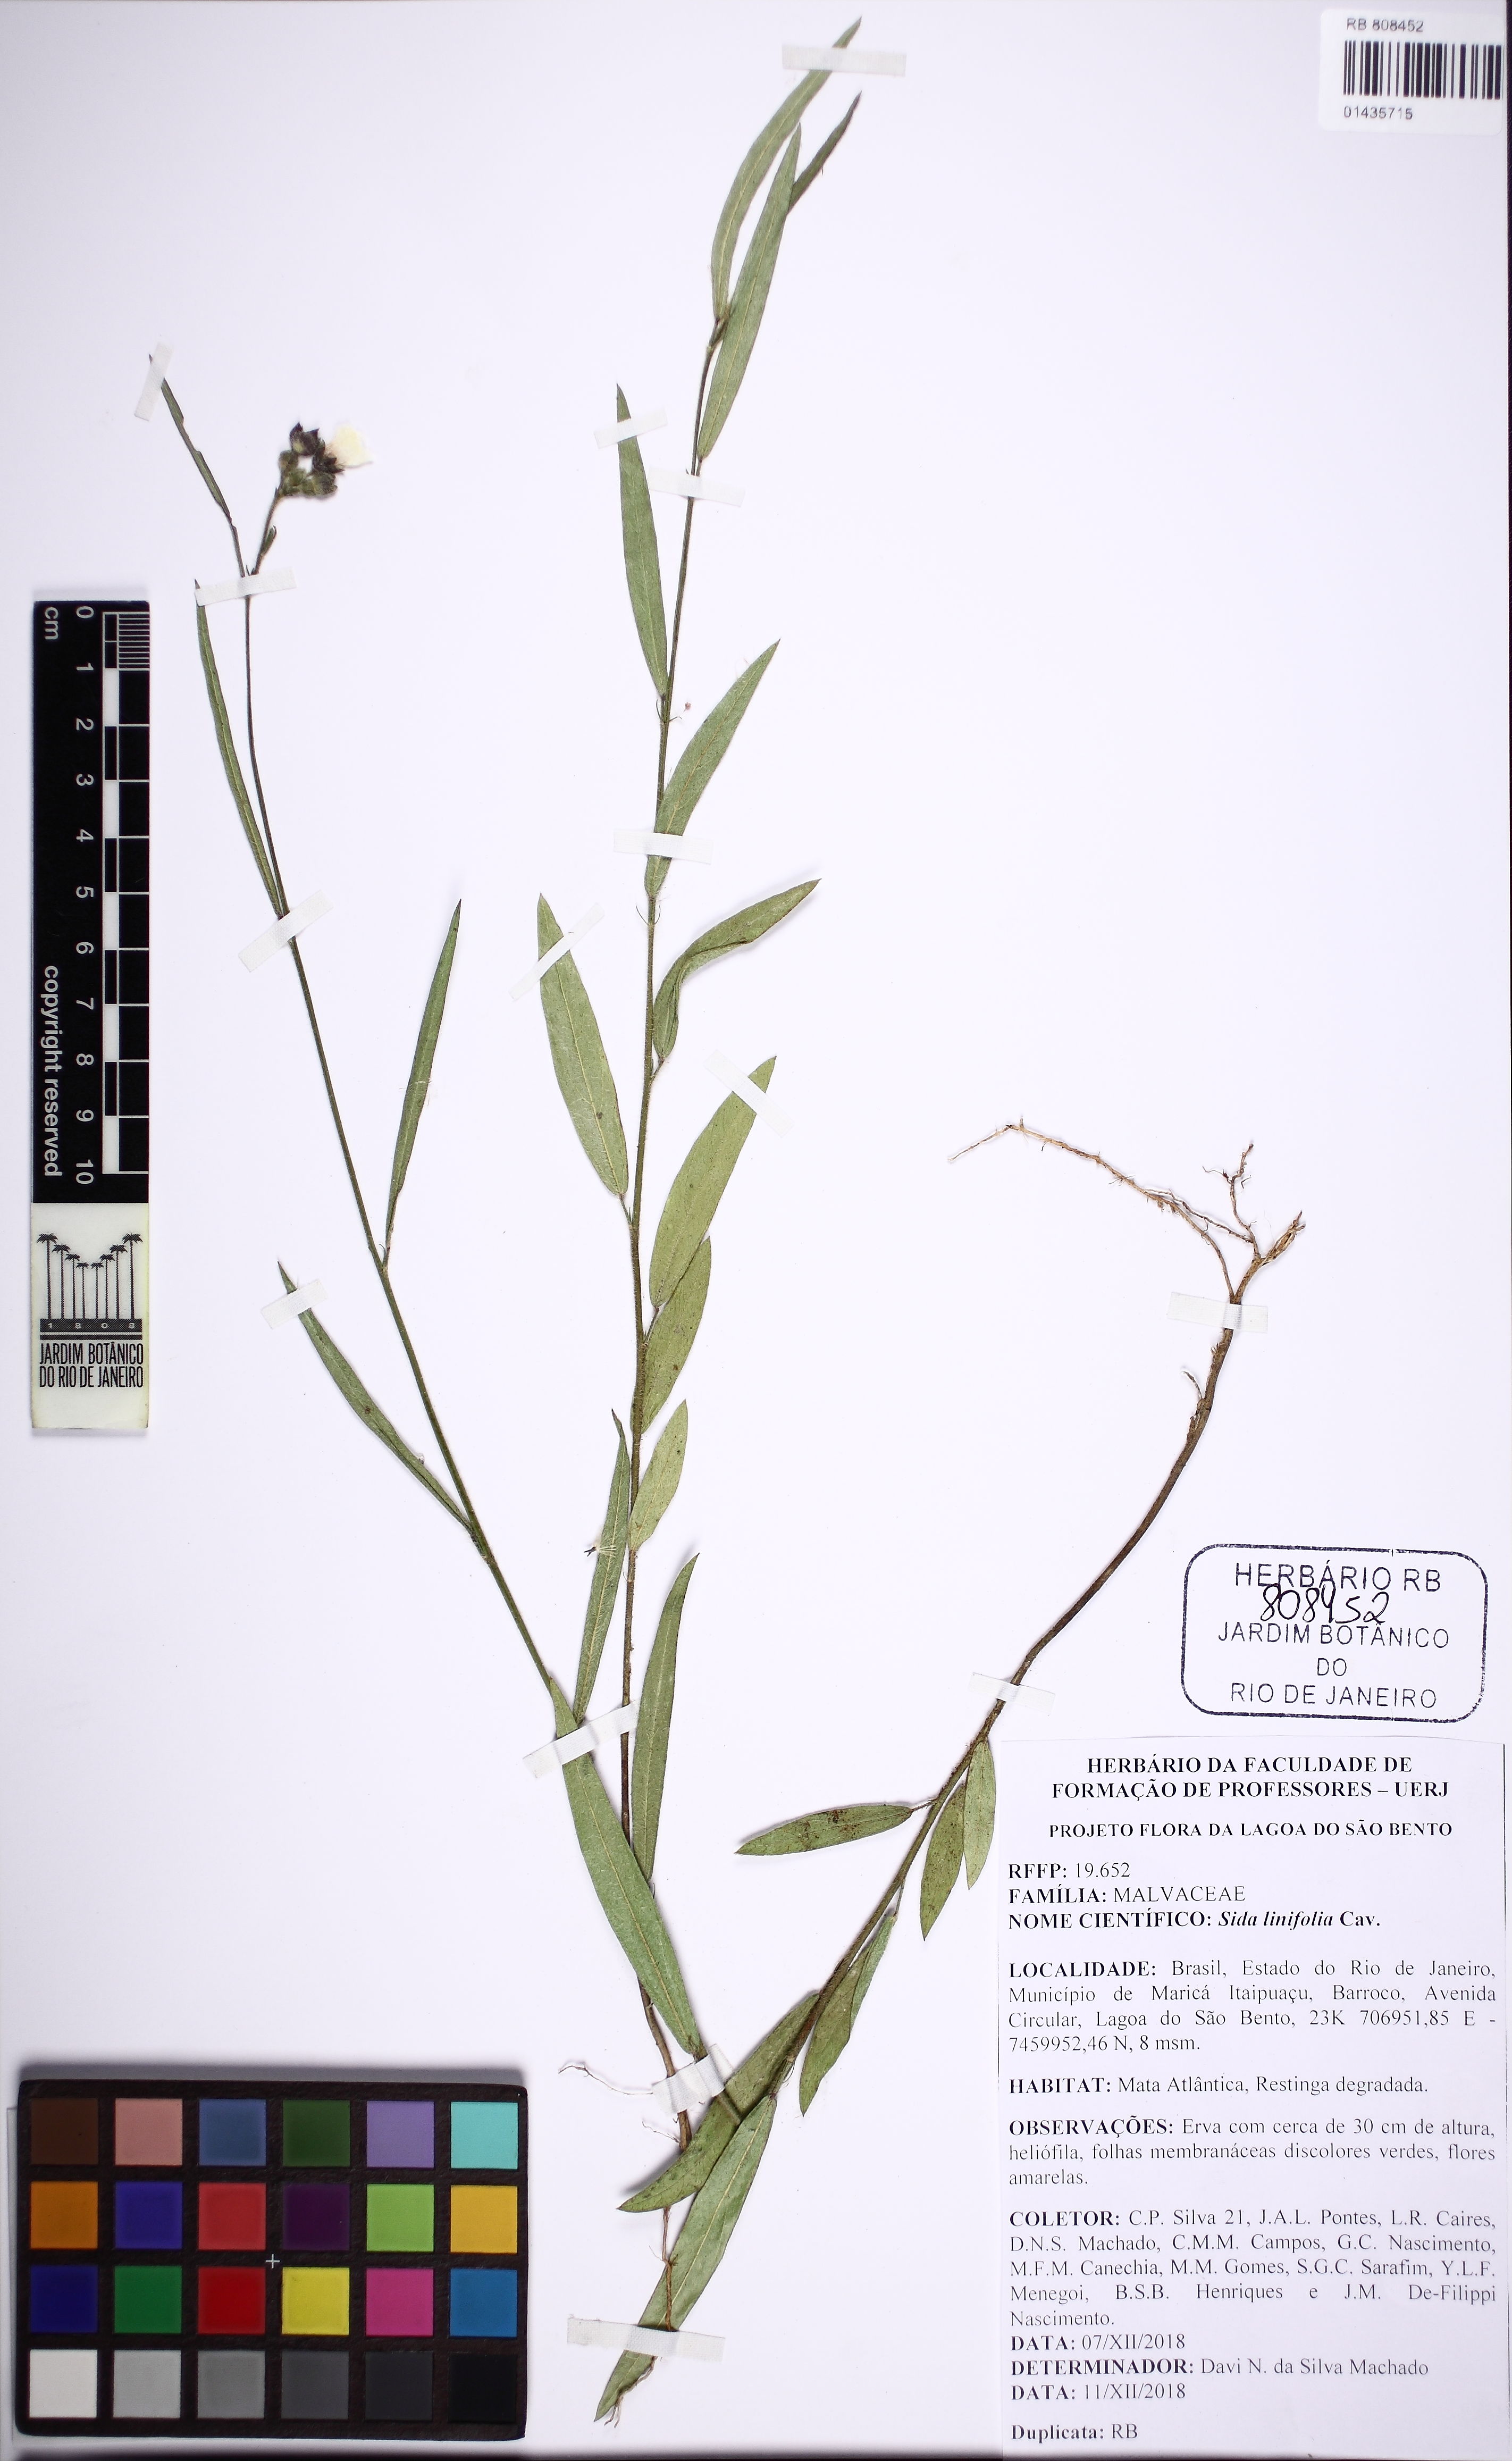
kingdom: Plantae
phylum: Tracheophyta
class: Magnoliopsida
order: Malvales
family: Malvaceae
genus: Sida
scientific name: Sida linifolia
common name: Flaxleaf fanpetals
